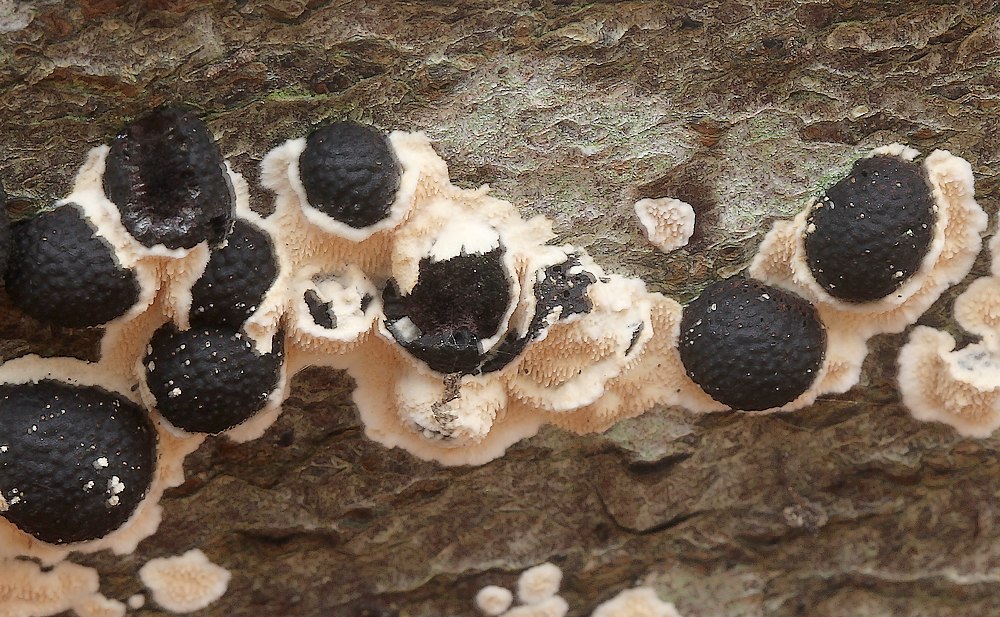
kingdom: Fungi
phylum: Basidiomycota
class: Agaricomycetes
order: Polyporales
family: Steccherinaceae
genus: Steccherinum
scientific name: Steccherinum ochraceum
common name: almindelig skønpig
